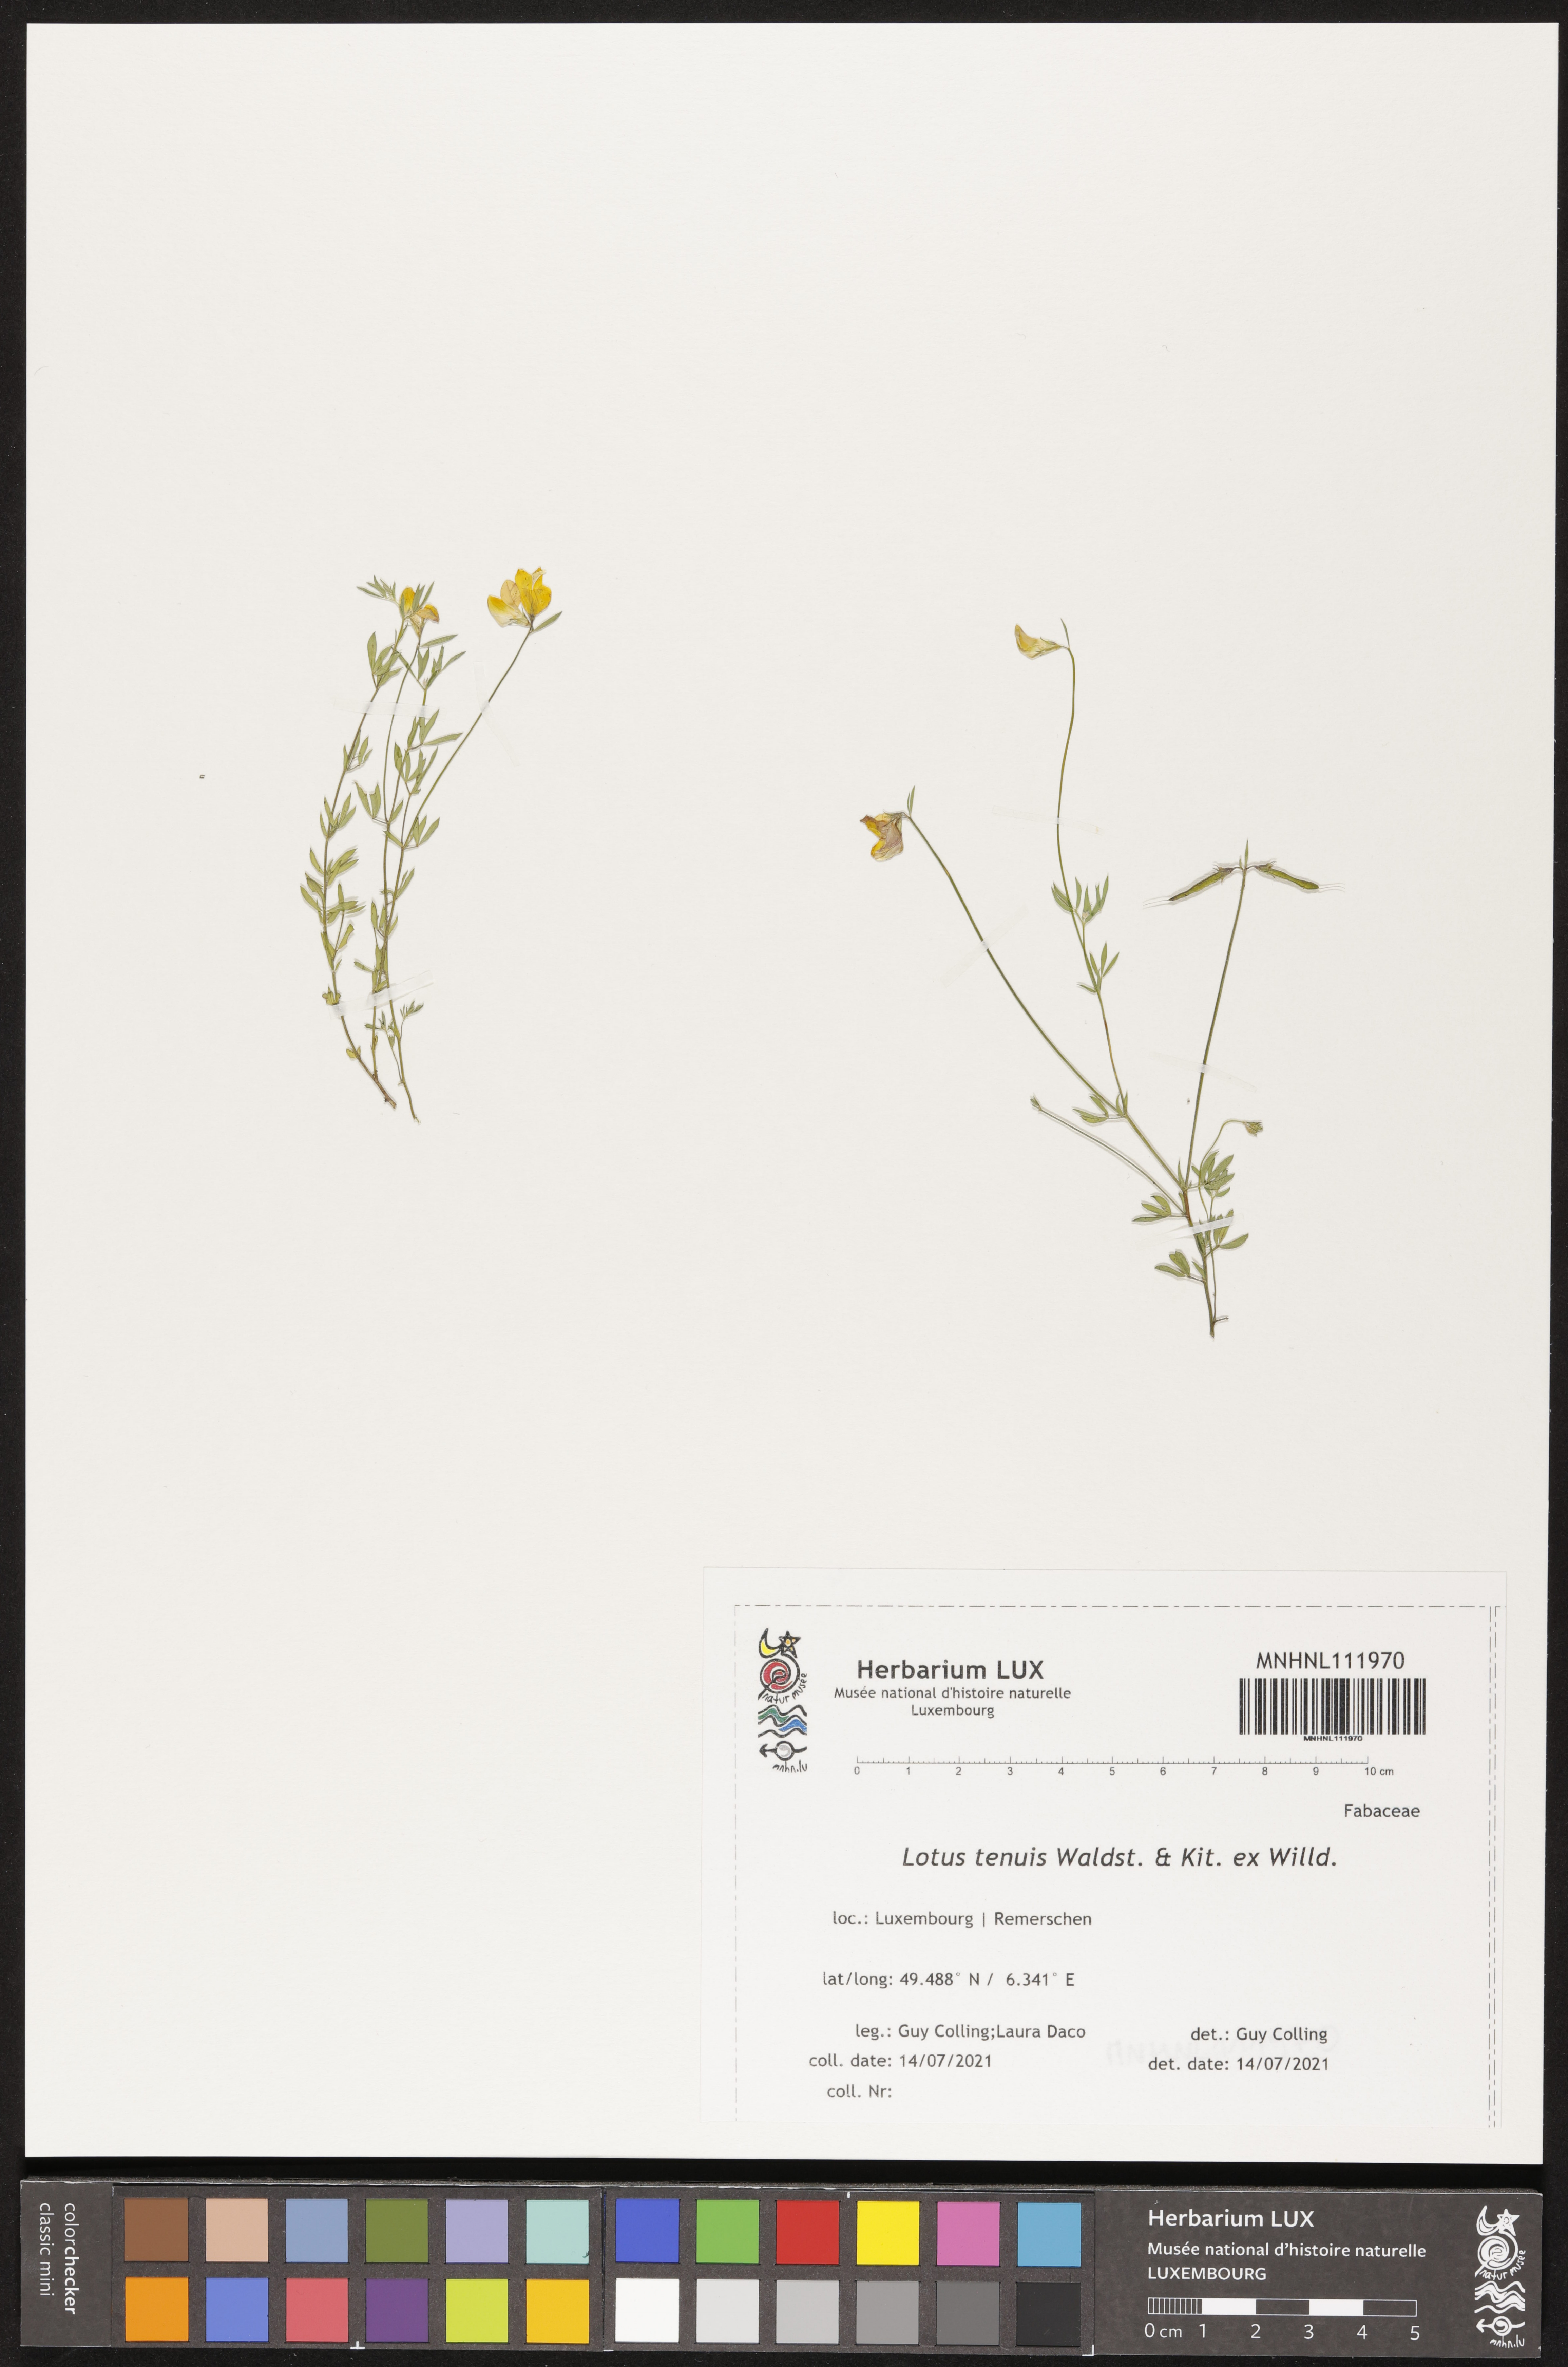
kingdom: Plantae
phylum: Tracheophyta
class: Magnoliopsida
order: Fabales
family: Fabaceae
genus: Lotus
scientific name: Lotus tenuis
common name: Narrow-leaved bird's-foot-trefoil
